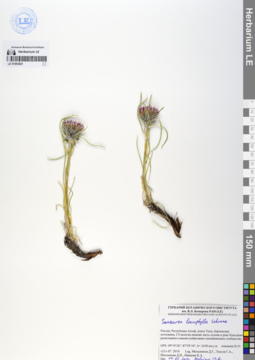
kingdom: Plantae
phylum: Tracheophyta
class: Magnoliopsida
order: Asterales
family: Asteraceae
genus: Saussurea
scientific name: Saussurea leucophylla
